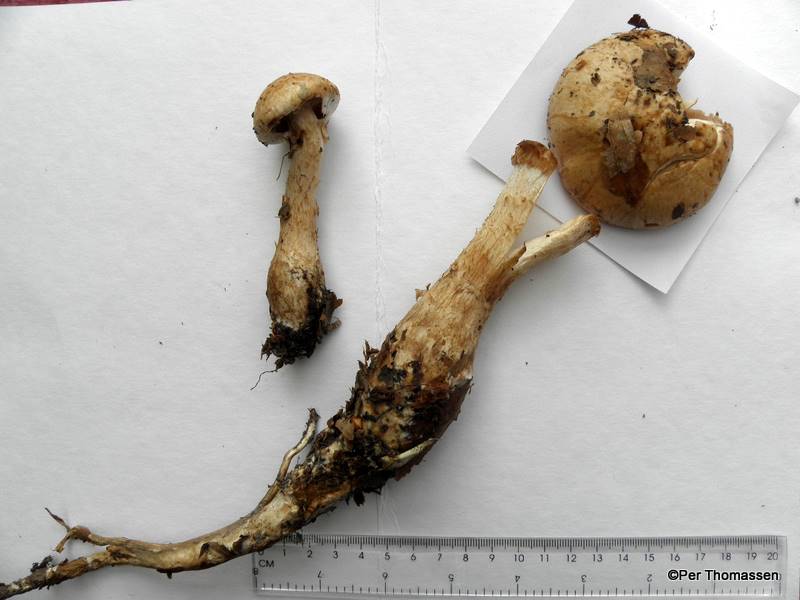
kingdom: Fungi
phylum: Basidiomycota
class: Agaricomycetes
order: Agaricales
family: Hymenogastraceae
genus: Hebeloma
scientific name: Hebeloma radicosum
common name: pælerods-tåreblad
